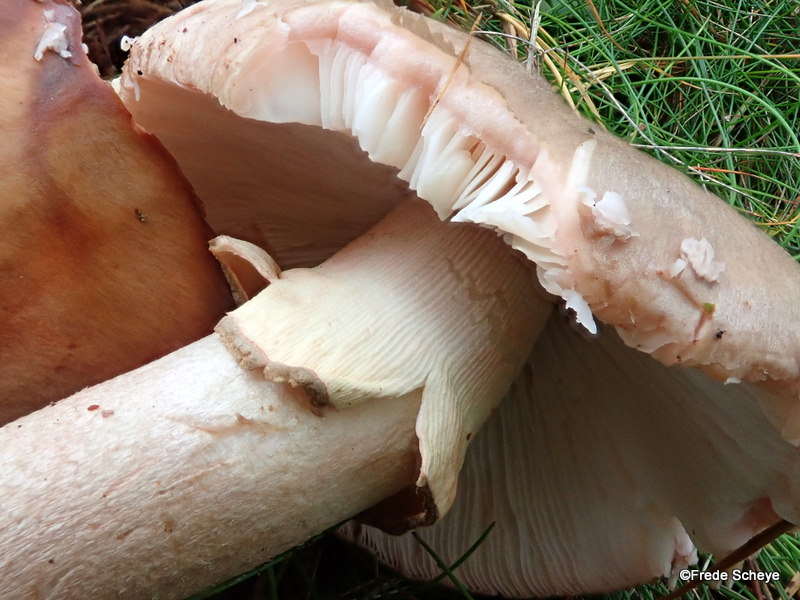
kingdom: Fungi
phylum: Basidiomycota
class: Agaricomycetes
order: Agaricales
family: Amanitaceae
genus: Amanita
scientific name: Amanita rubescens
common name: rødmende fluesvamp
